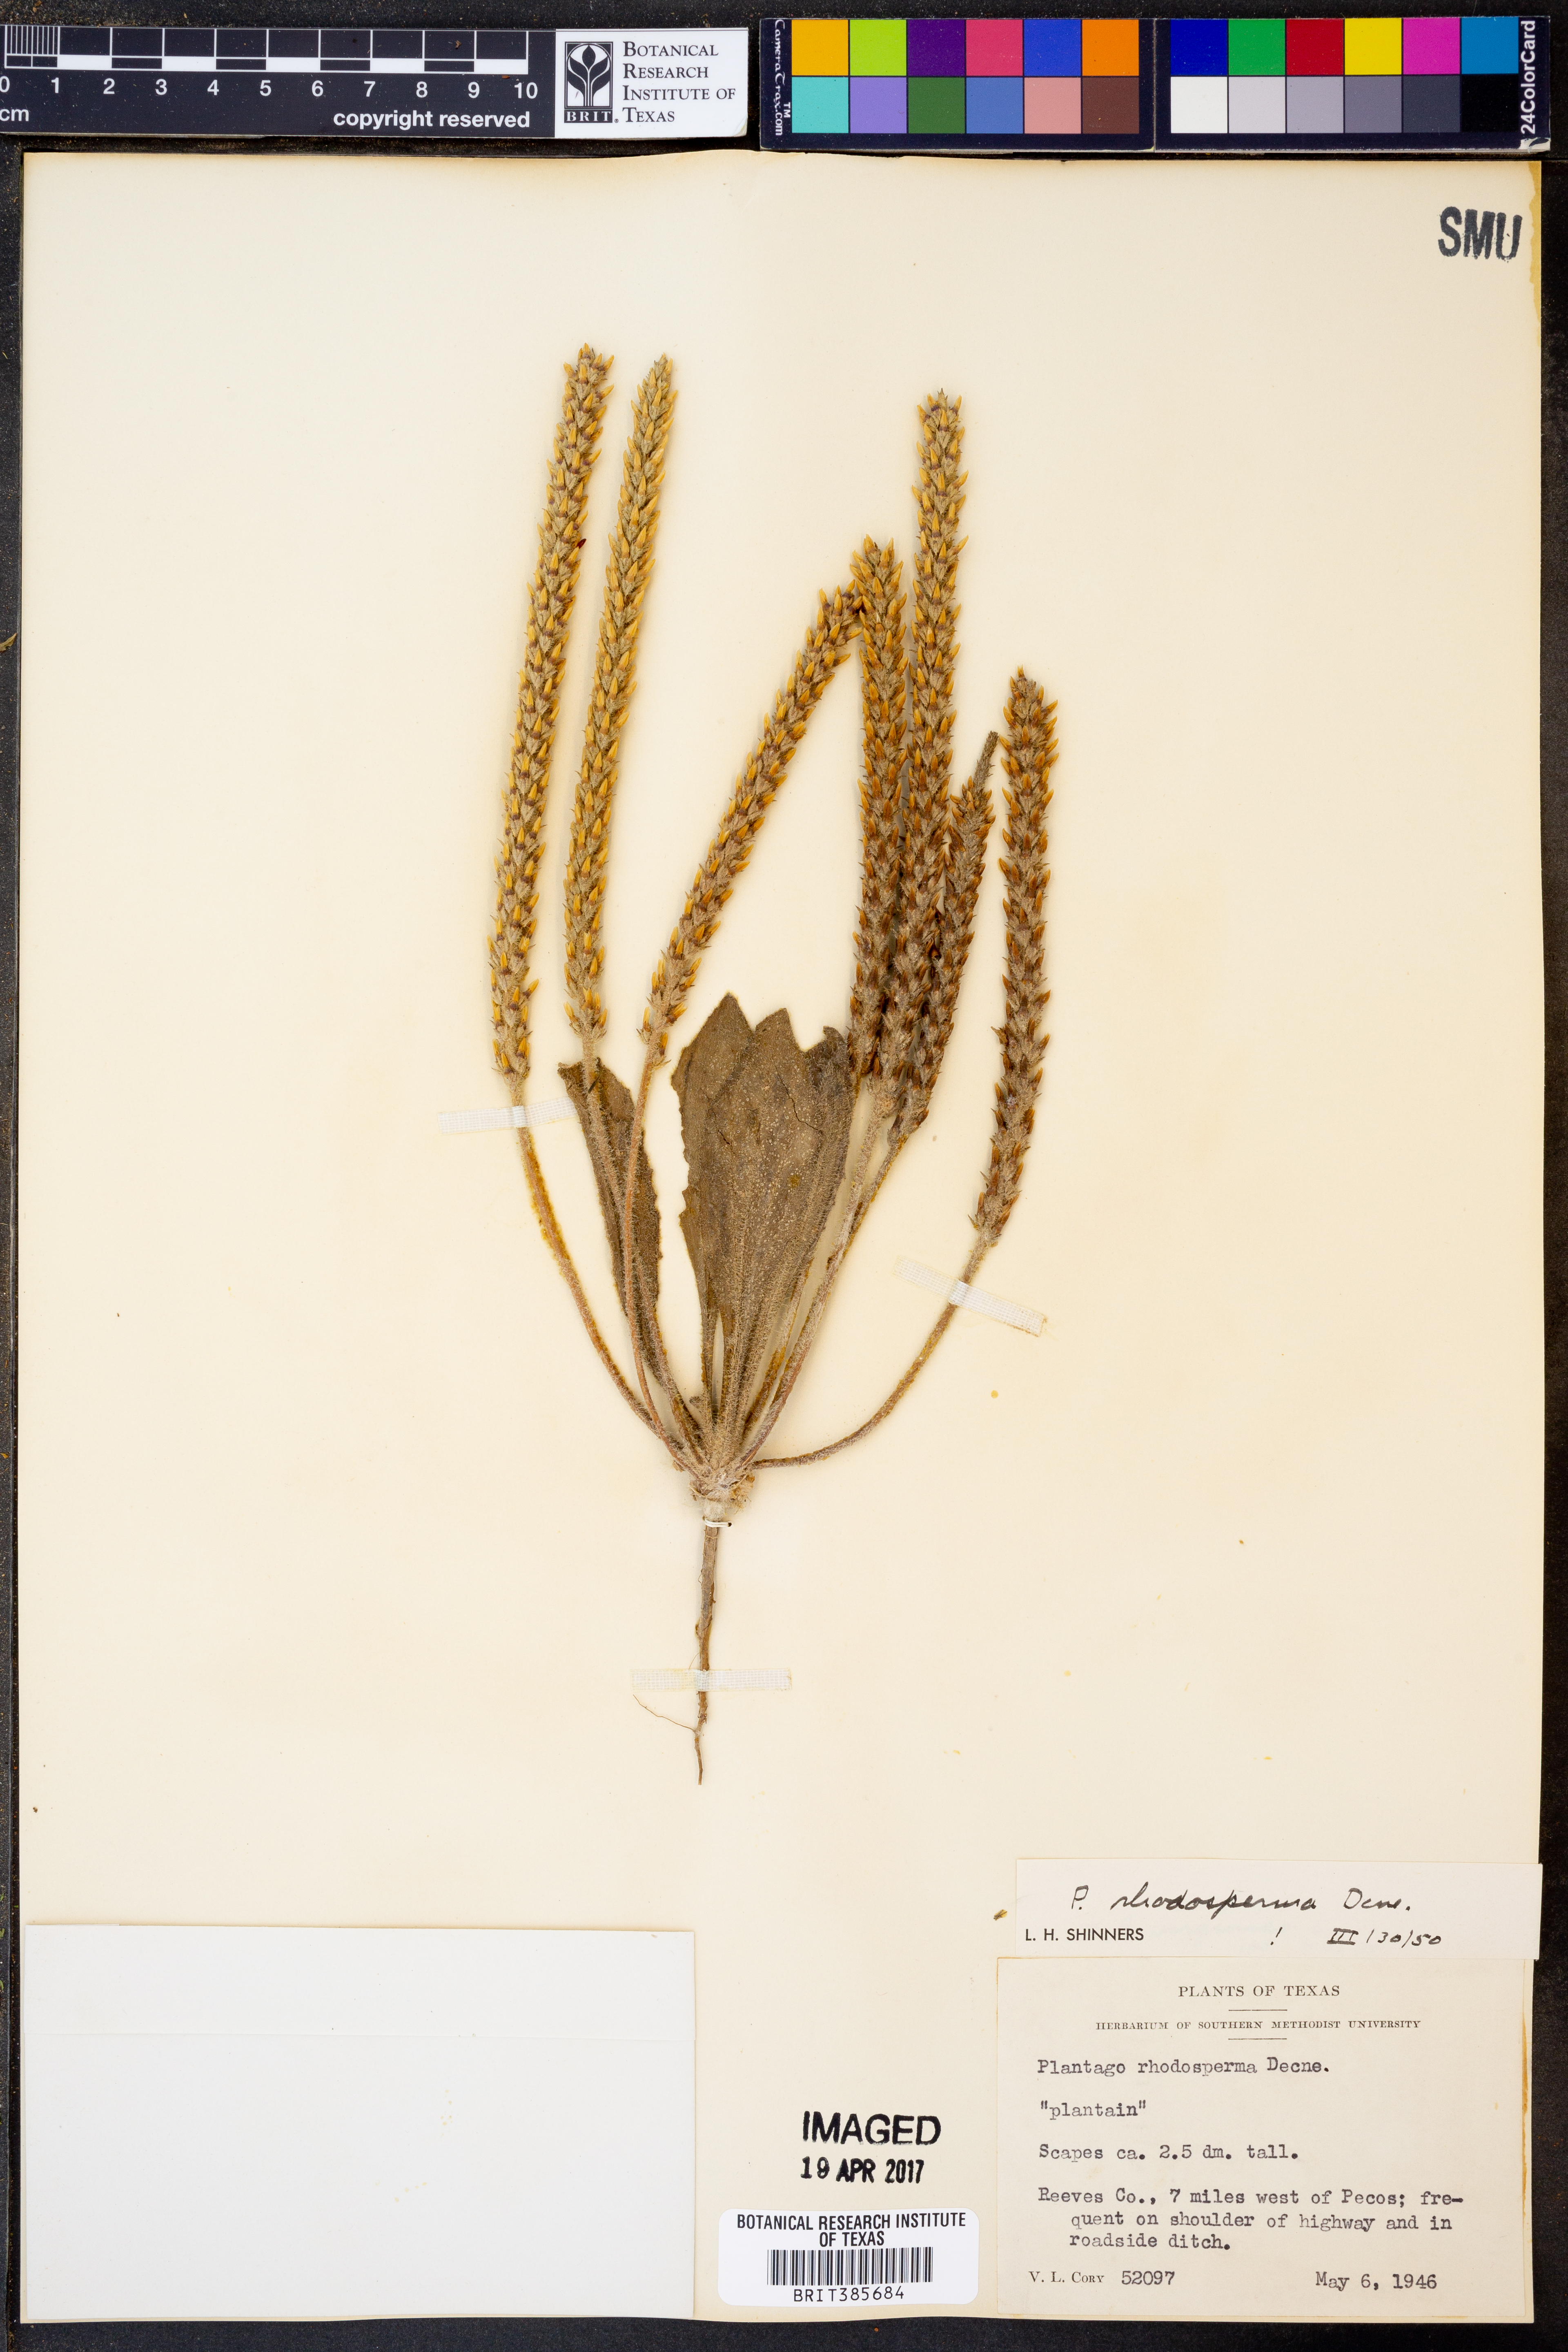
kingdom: Plantae
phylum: Tracheophyta
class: Magnoliopsida
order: Lamiales
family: Plantaginaceae
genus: Plantago
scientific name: Plantago rhodosperma
